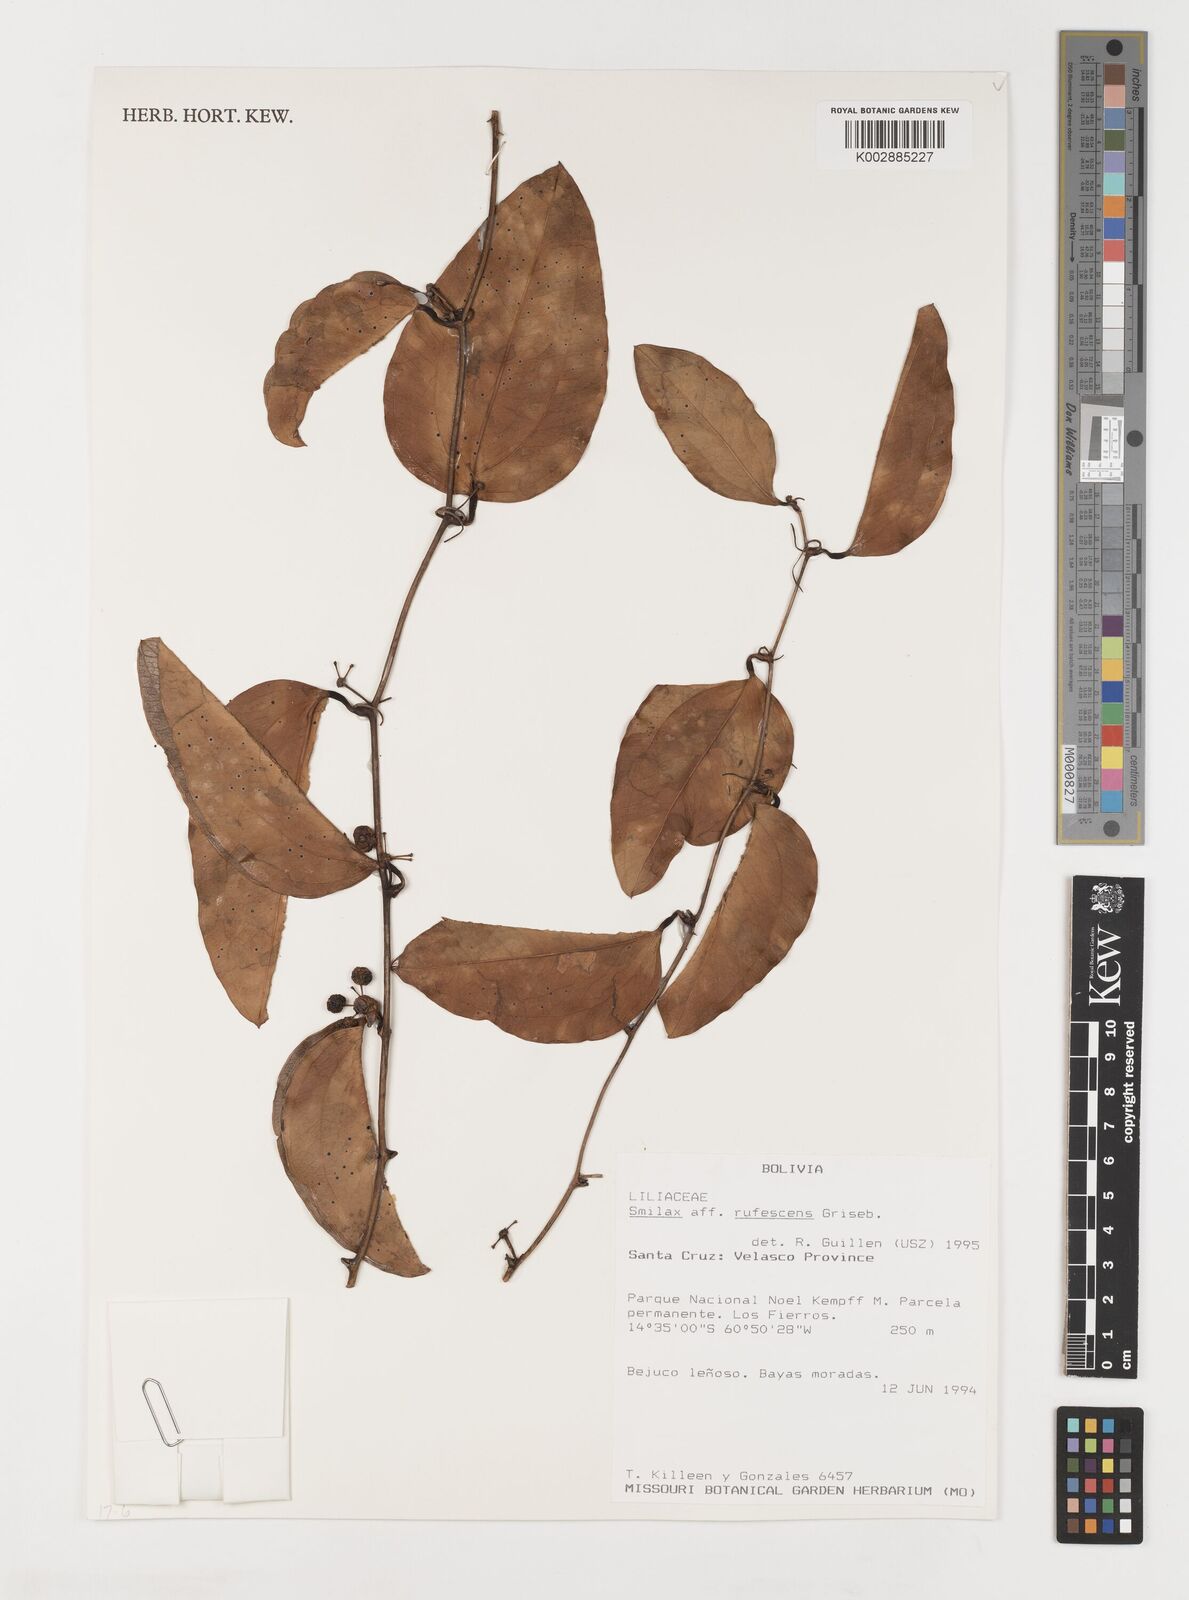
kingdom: Plantae
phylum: Tracheophyta
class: Liliopsida
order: Liliales
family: Smilacaceae
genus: Smilax
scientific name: Smilax rufescens
